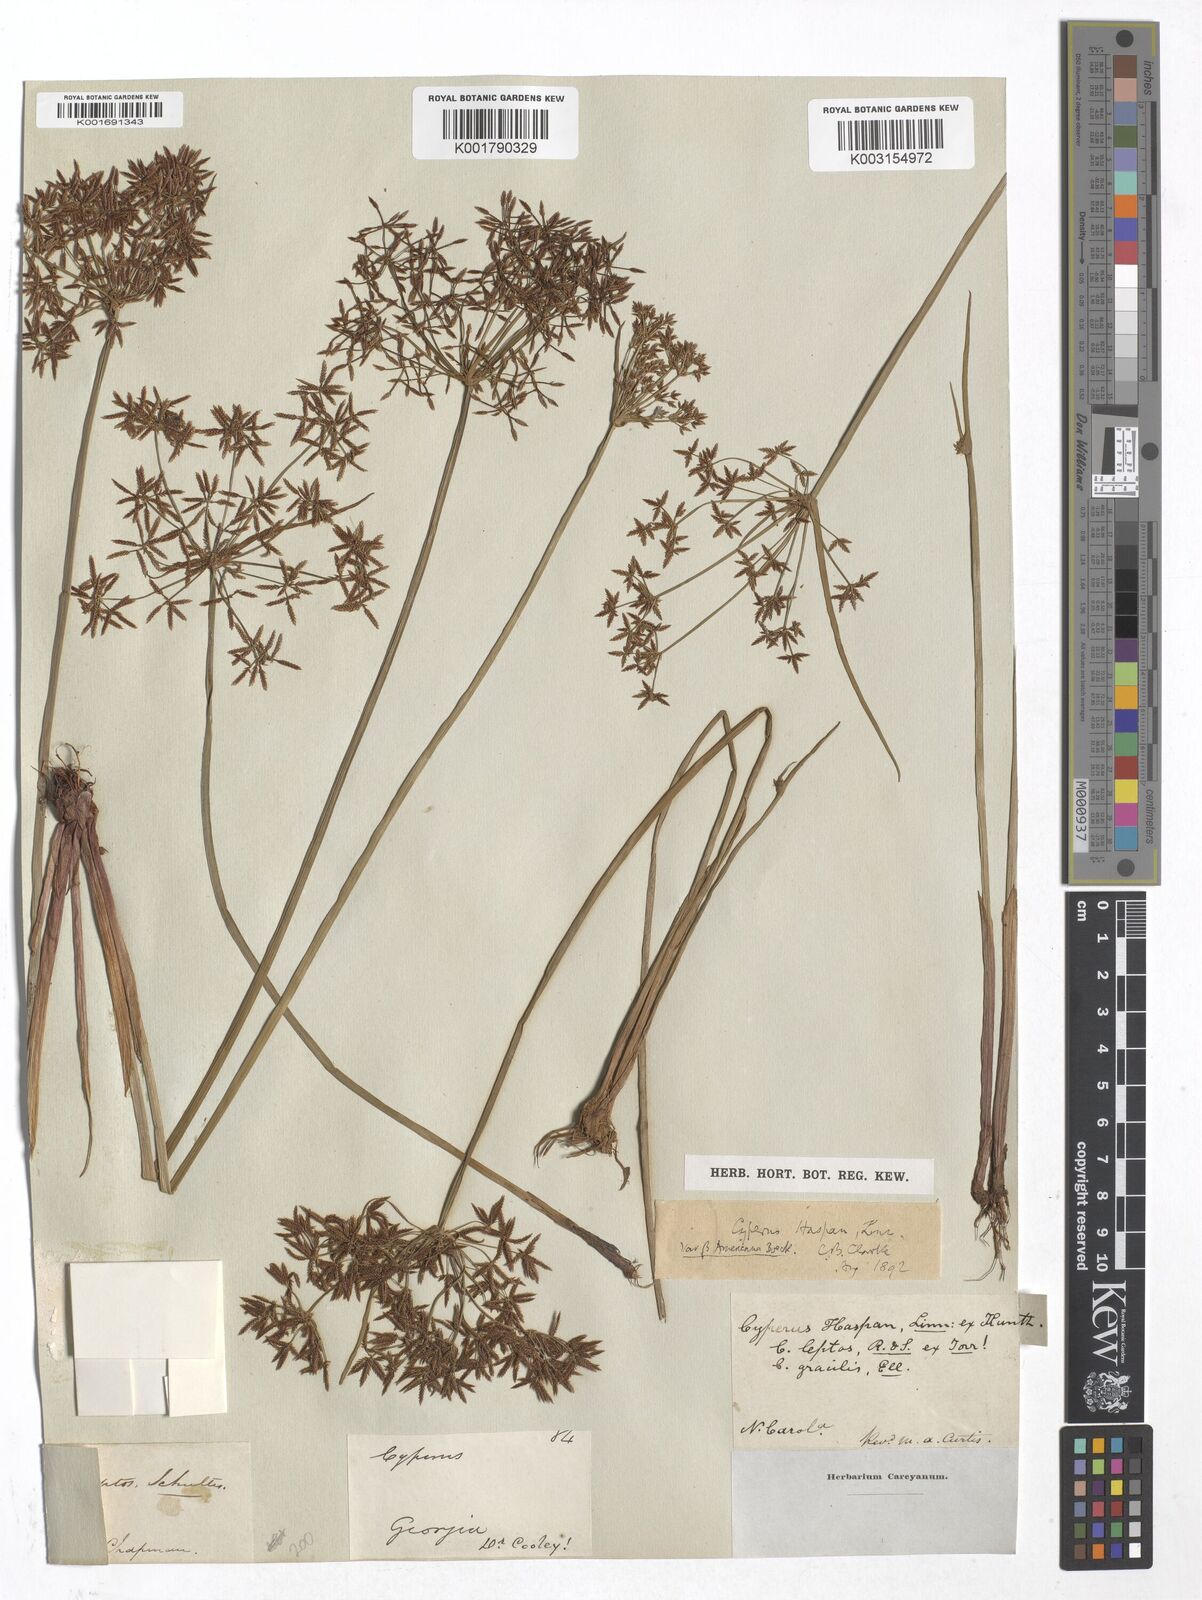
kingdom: Plantae
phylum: Tracheophyta
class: Liliopsida
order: Poales
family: Cyperaceae
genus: Cyperus
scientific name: Cyperus haspan
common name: Haspan flatsedge
